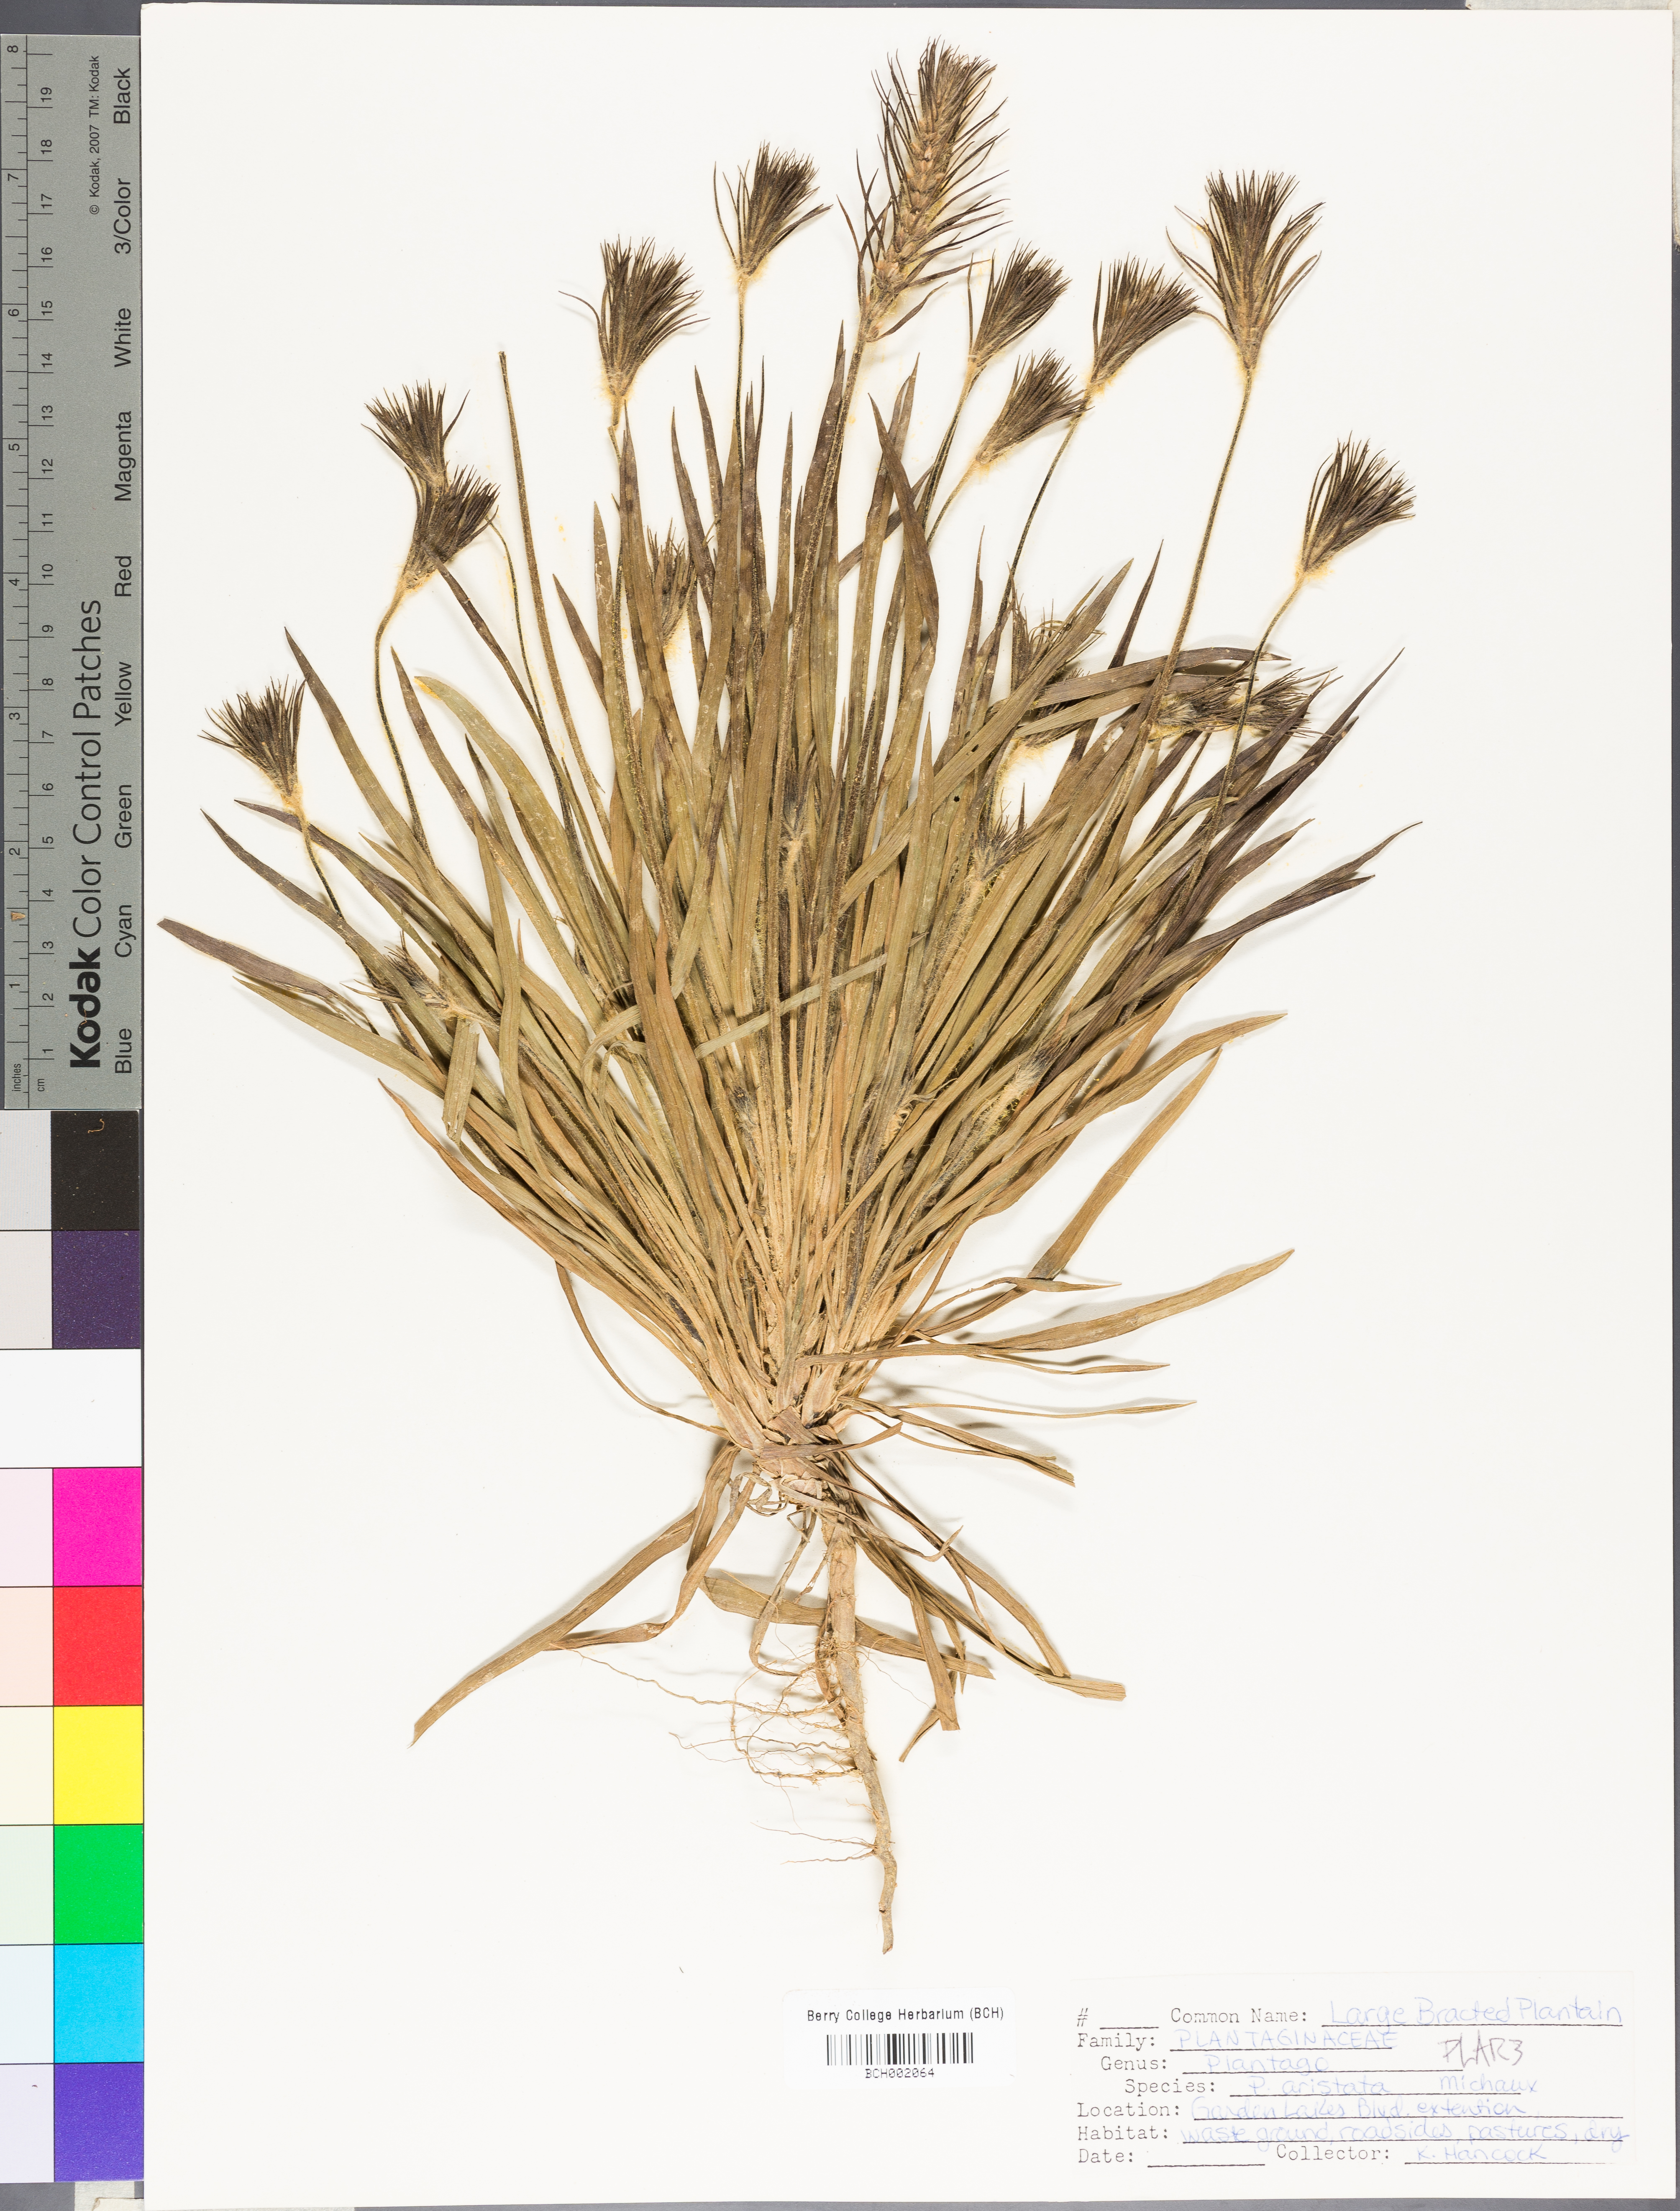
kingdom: Plantae
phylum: Tracheophyta
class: Magnoliopsida
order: Lamiales
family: Plantaginaceae
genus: Plantago
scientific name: Plantago aristata
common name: Bracted plantain
